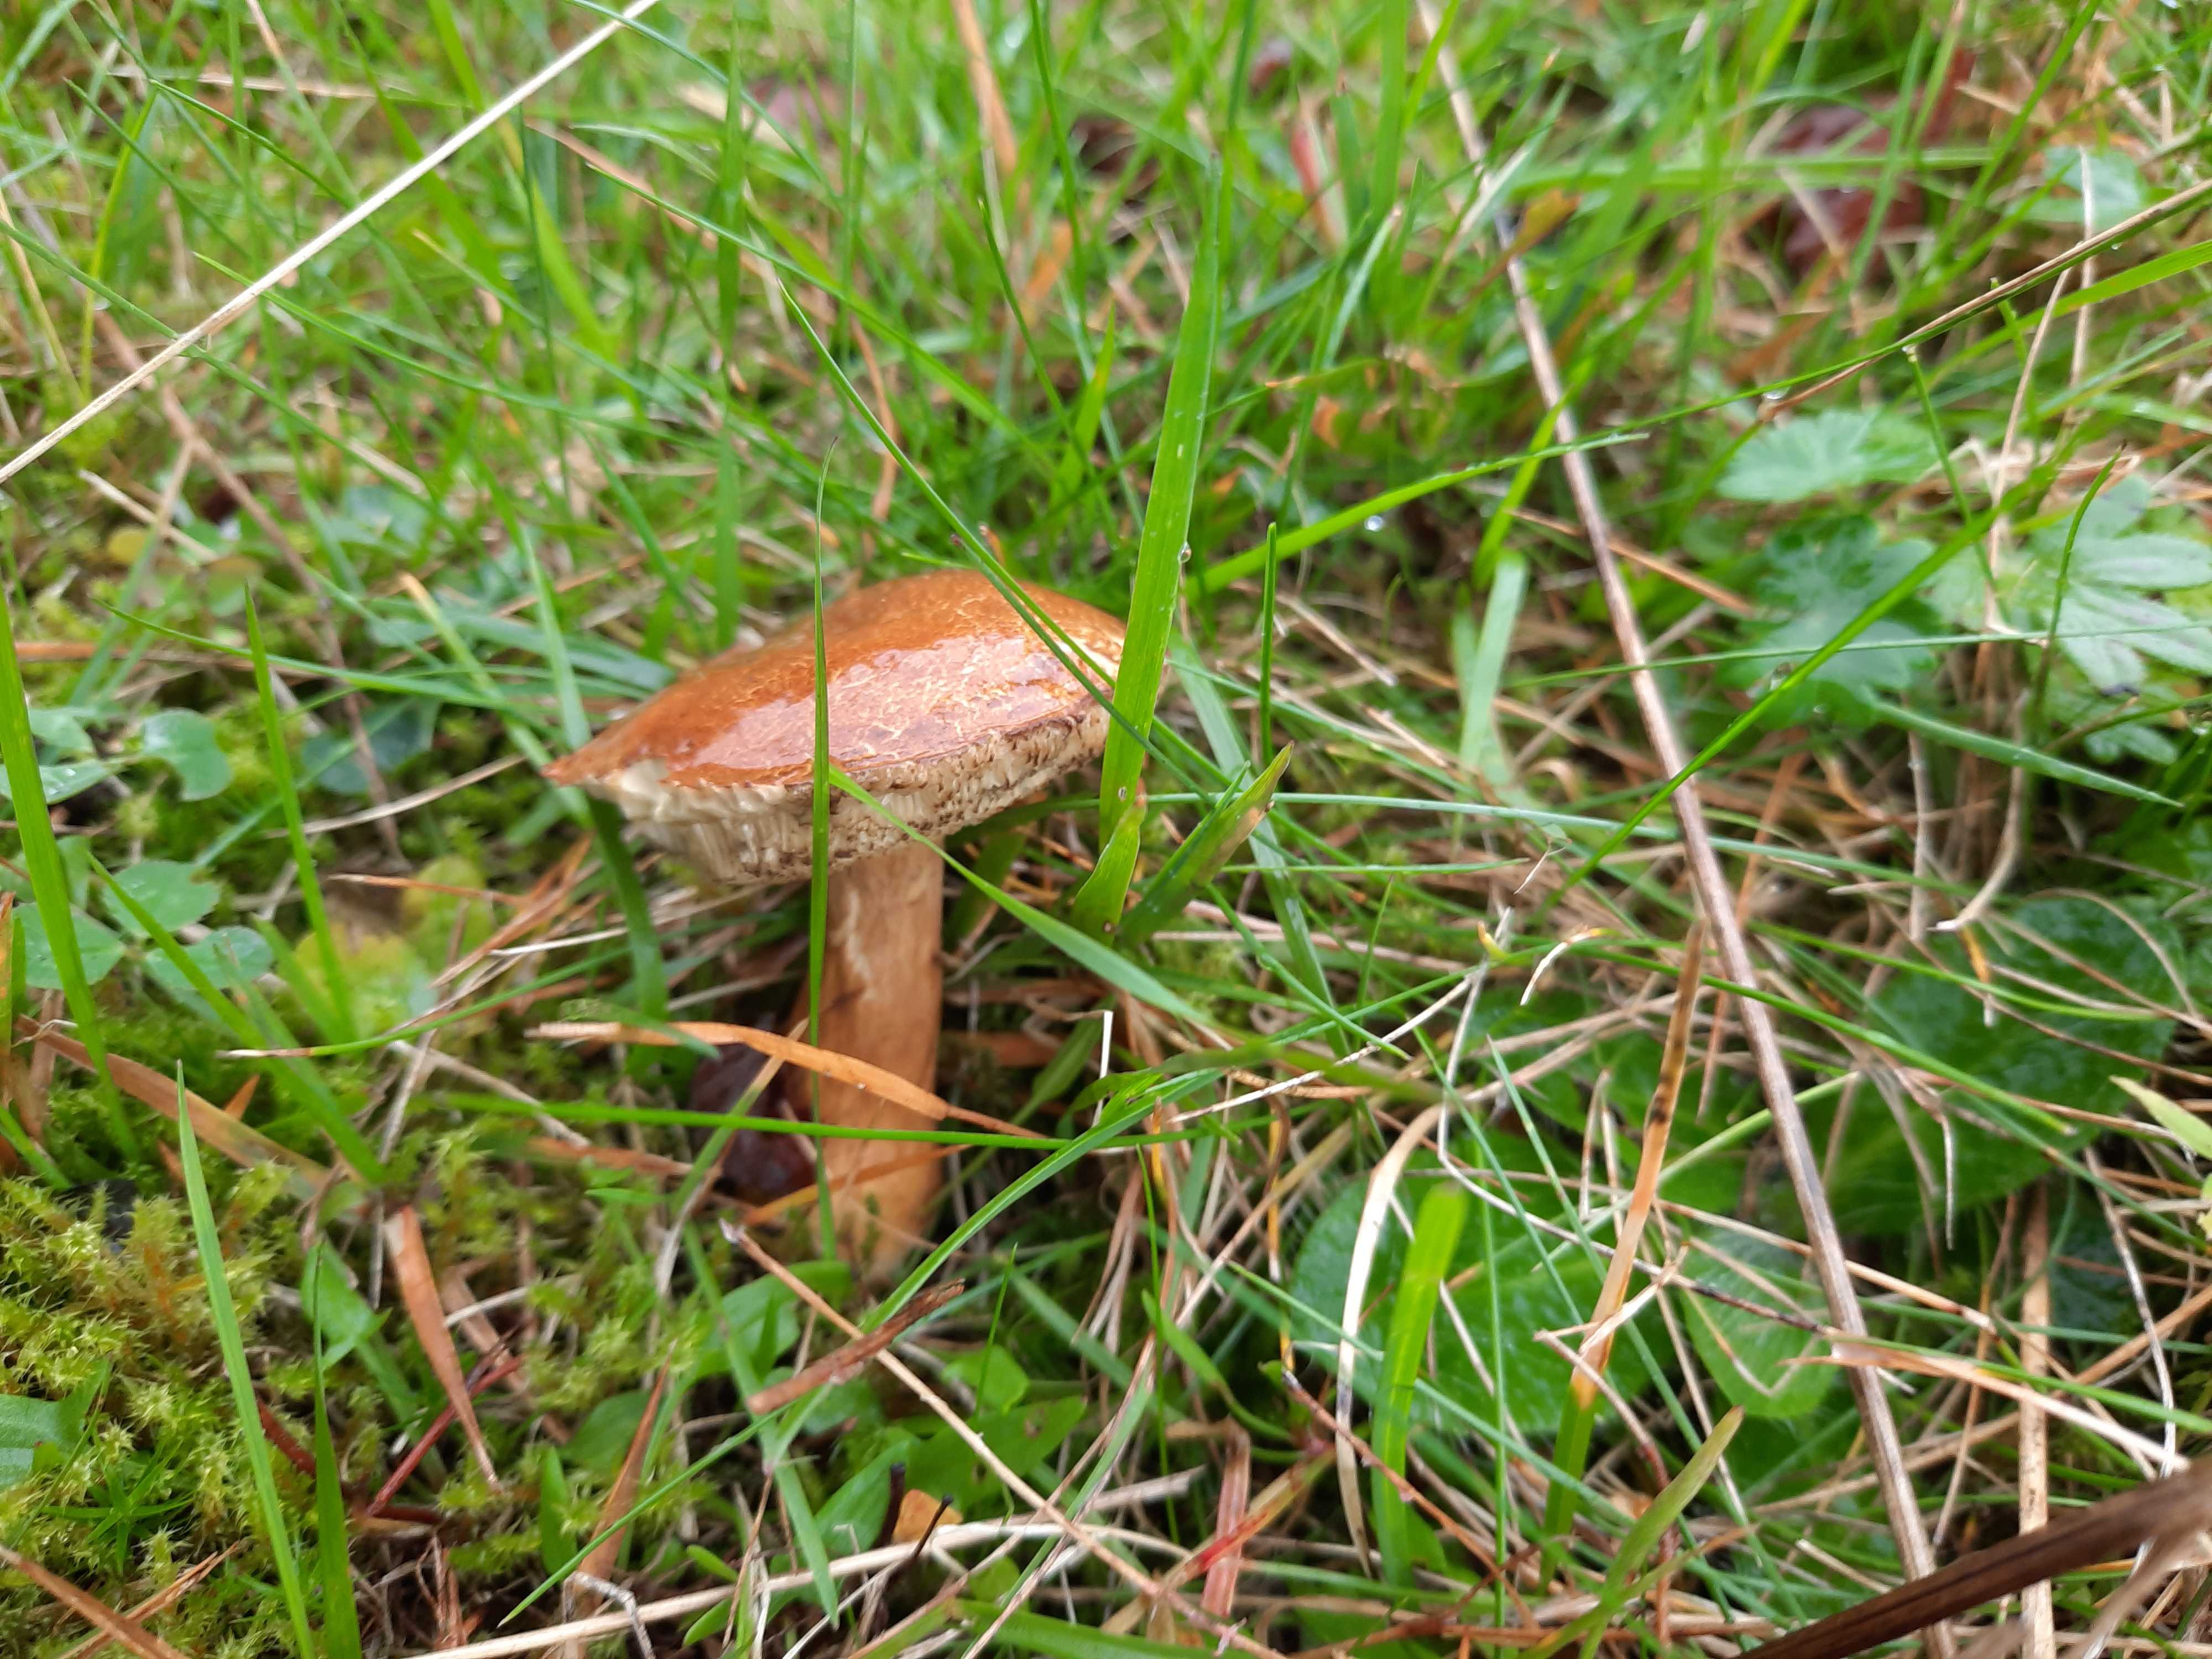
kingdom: Fungi
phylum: Basidiomycota
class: Agaricomycetes
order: Boletales
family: Boletaceae
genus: Imleria
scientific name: Imleria badia
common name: brunstokket rørhat
